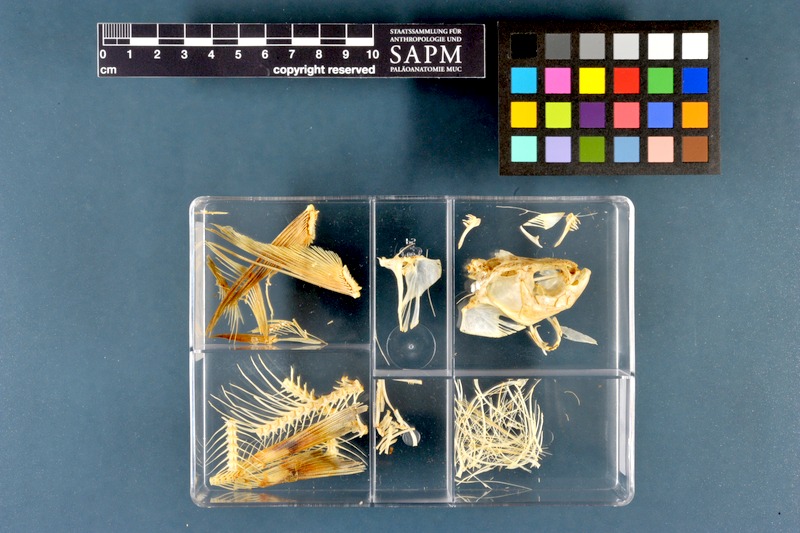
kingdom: Animalia
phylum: Chordata
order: Cypriniformes
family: Cyprinidae
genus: Pelecus
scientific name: Pelecus cultratus
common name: Ziege
